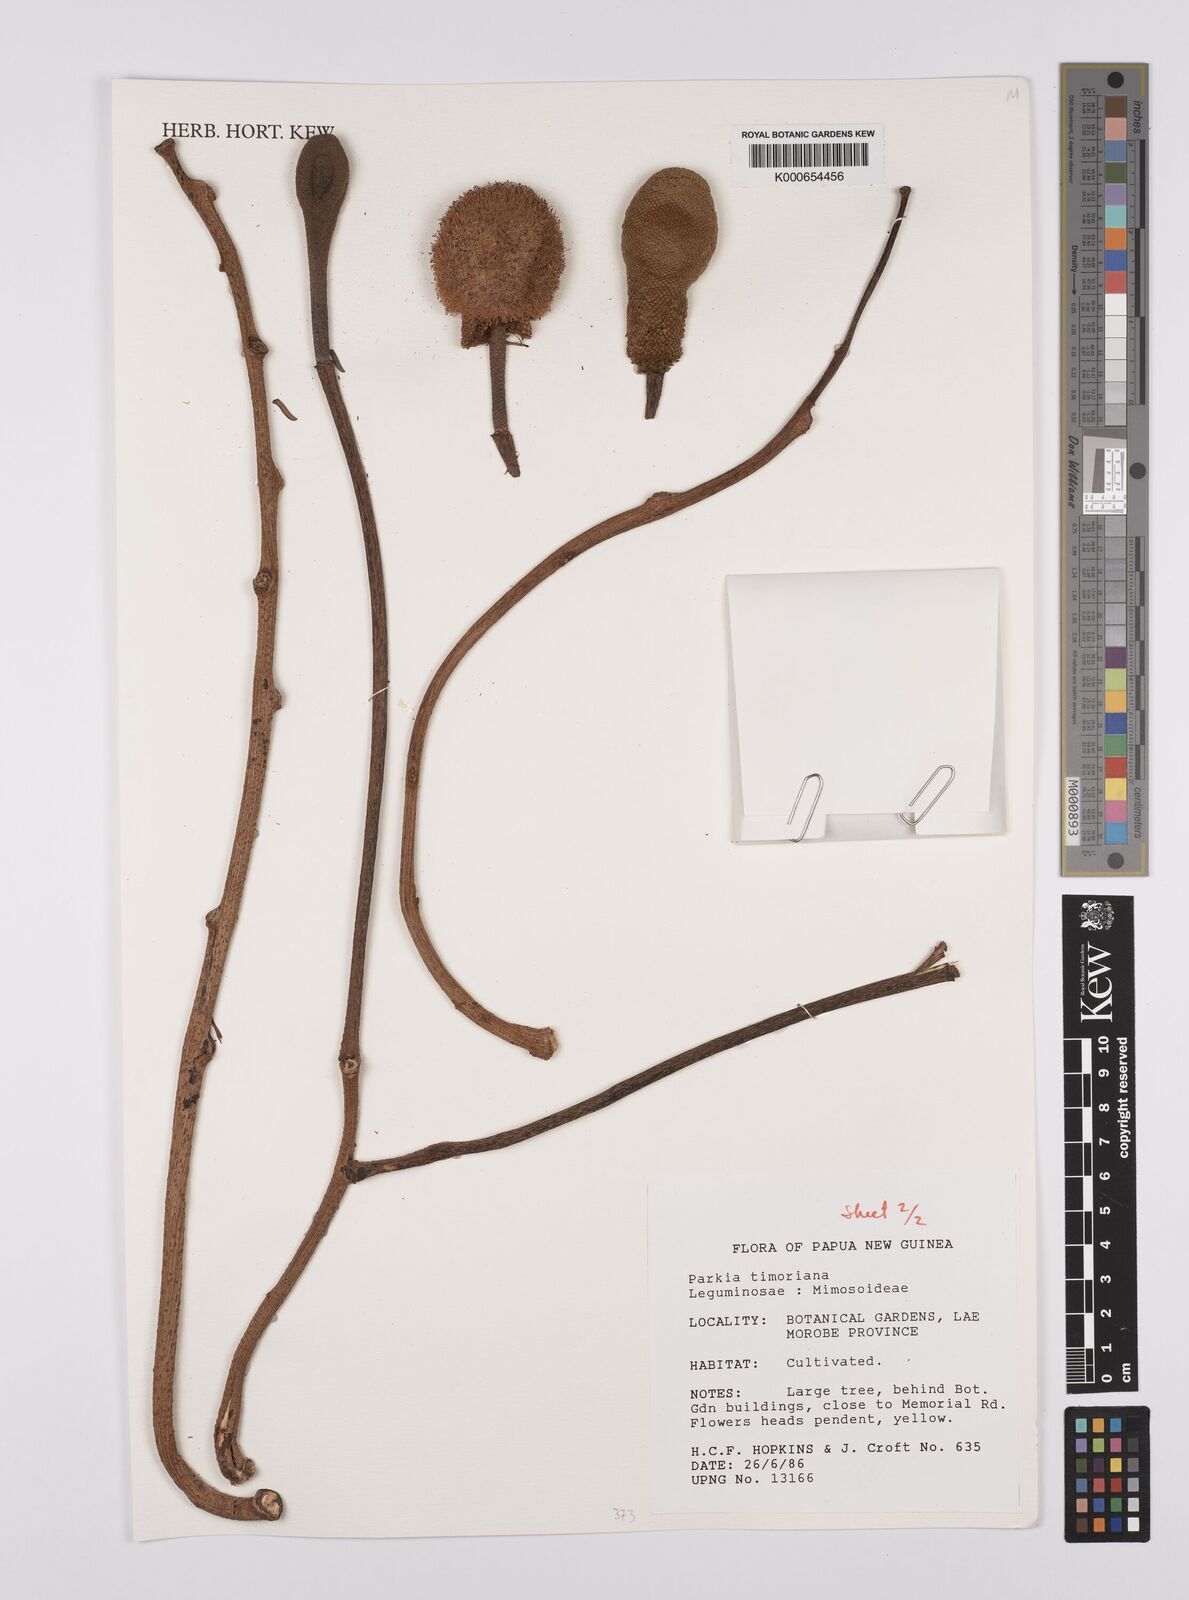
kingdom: Plantae
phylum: Tracheophyta
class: Magnoliopsida
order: Fabales
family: Fabaceae
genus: Parkia
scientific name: Parkia timoriana
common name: Legume
